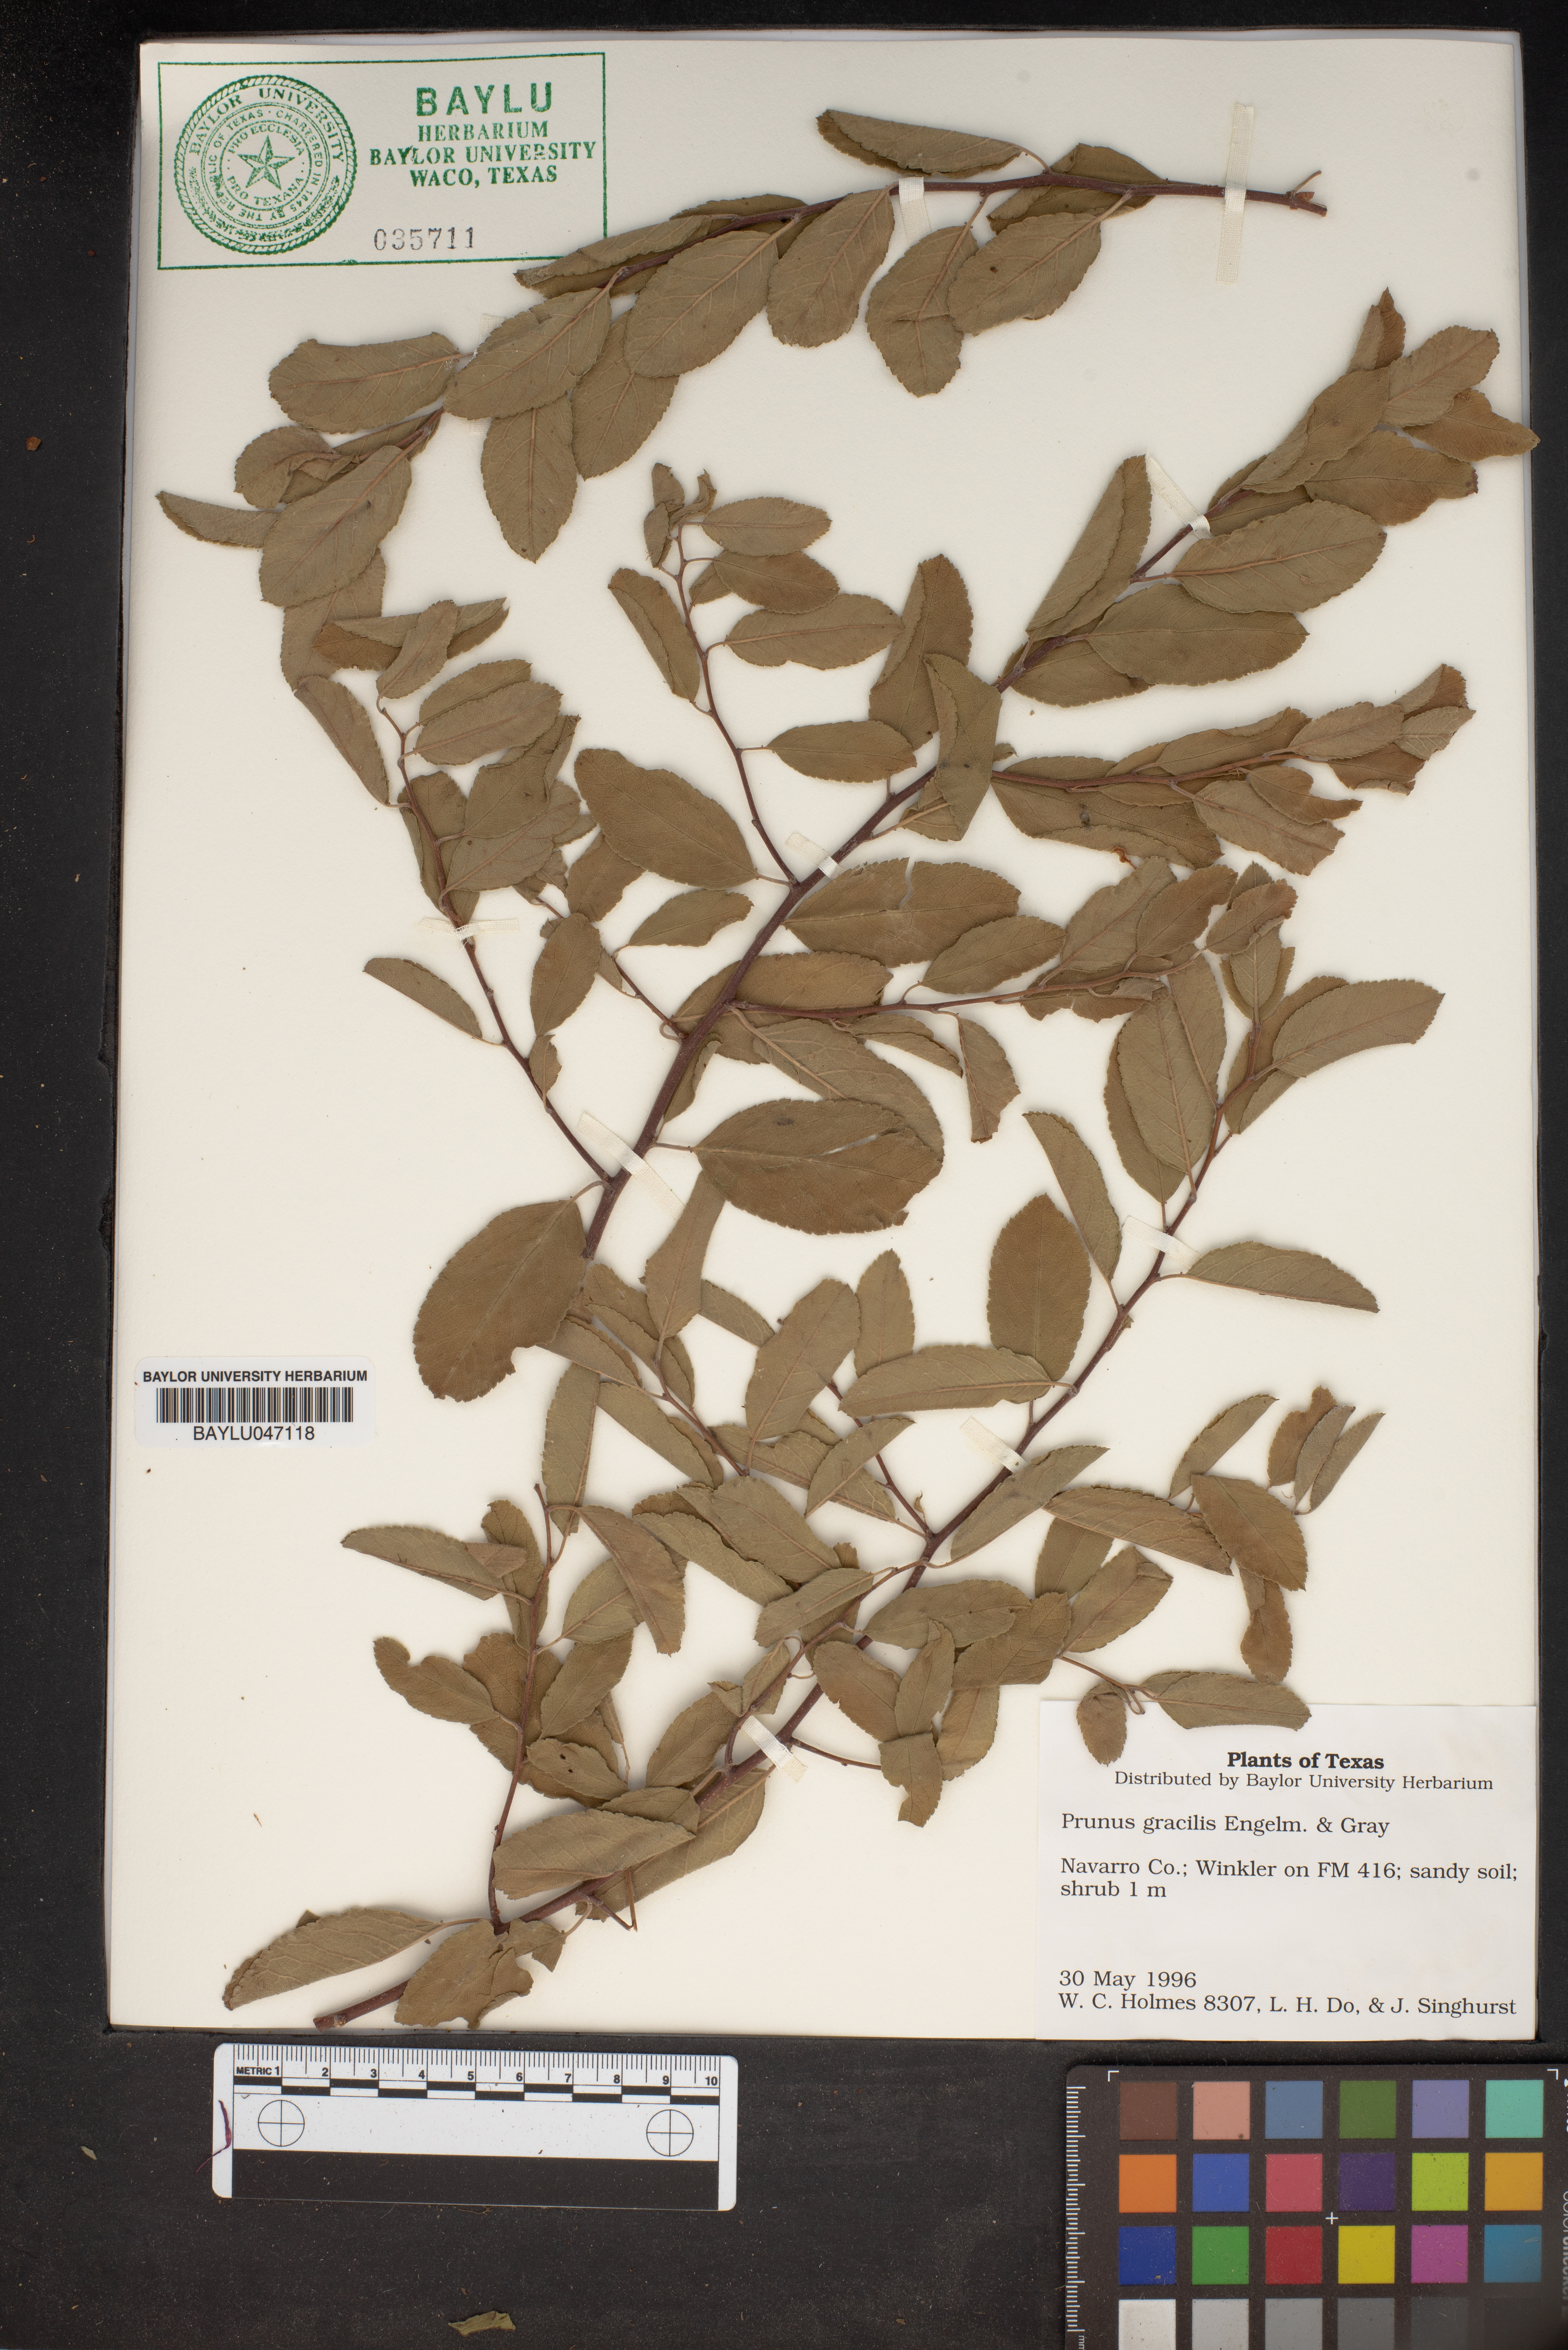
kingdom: Plantae
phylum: Tracheophyta
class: Magnoliopsida
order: Rosales
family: Rosaceae
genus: Prunus
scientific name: Prunus gracilis
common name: Oklahoma plum
